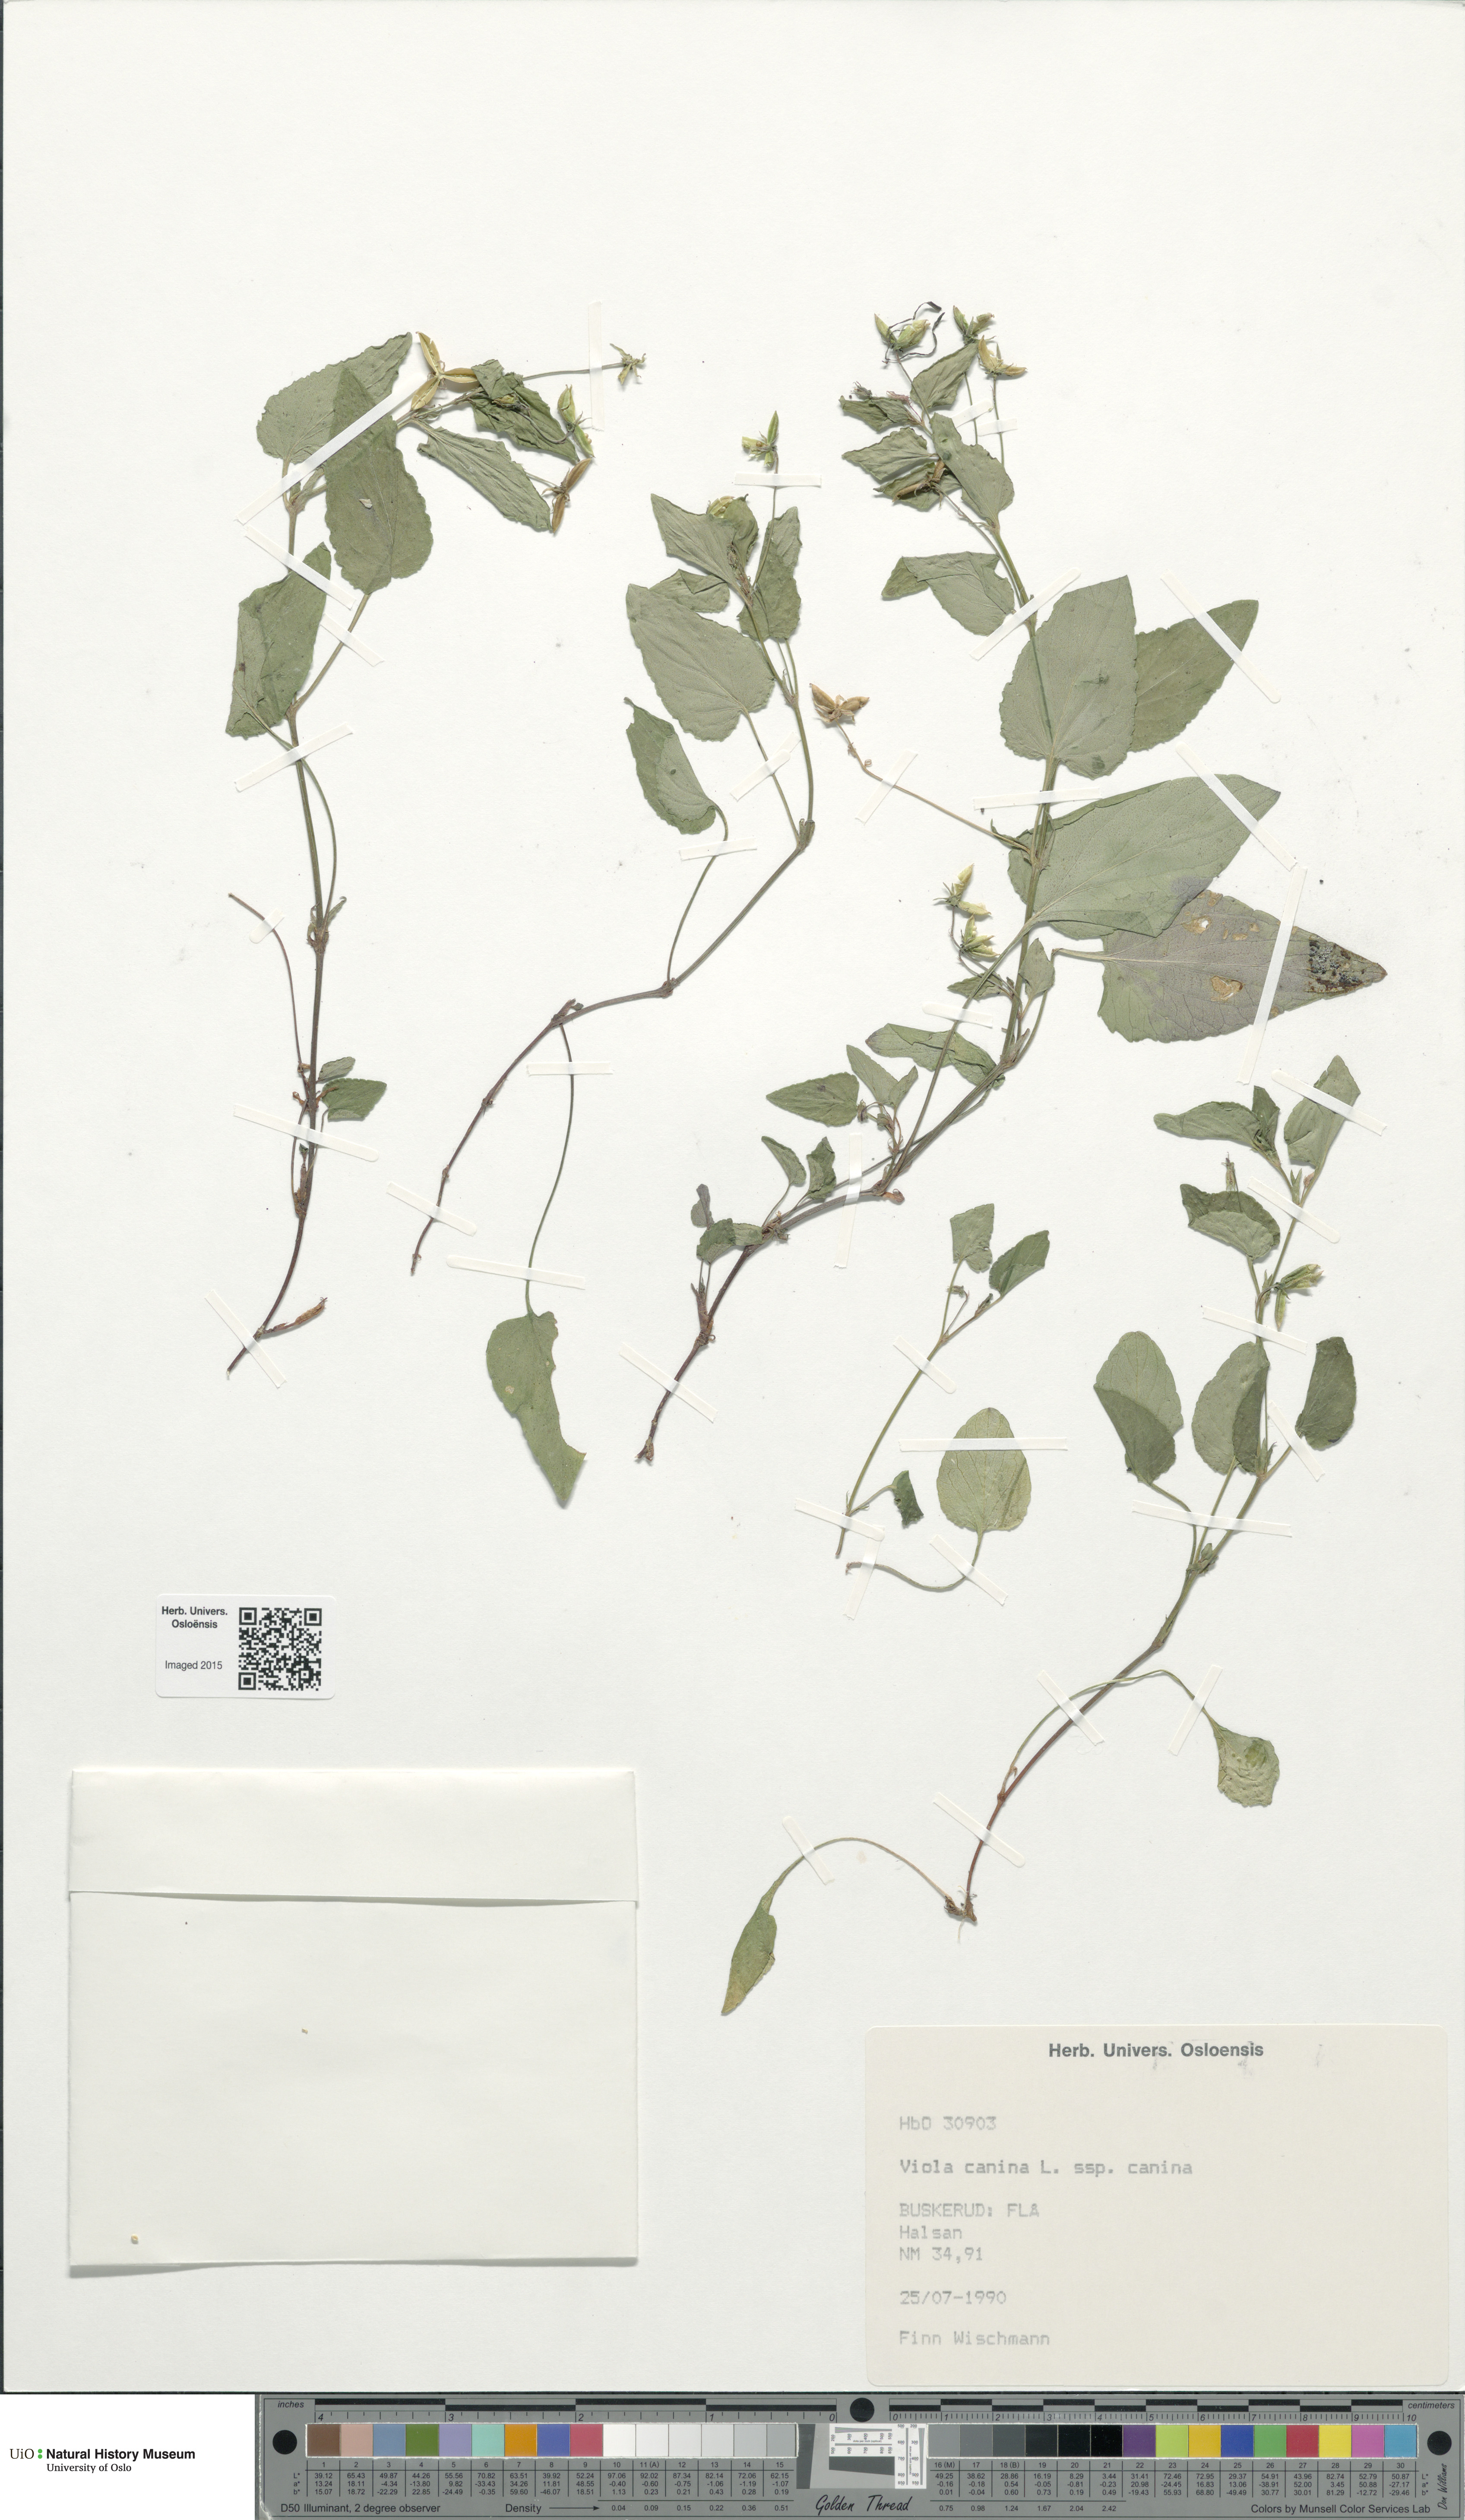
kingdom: Plantae
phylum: Tracheophyta
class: Magnoliopsida
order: Malpighiales
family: Violaceae
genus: Viola
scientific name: Viola canina
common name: Heath dog-violet
